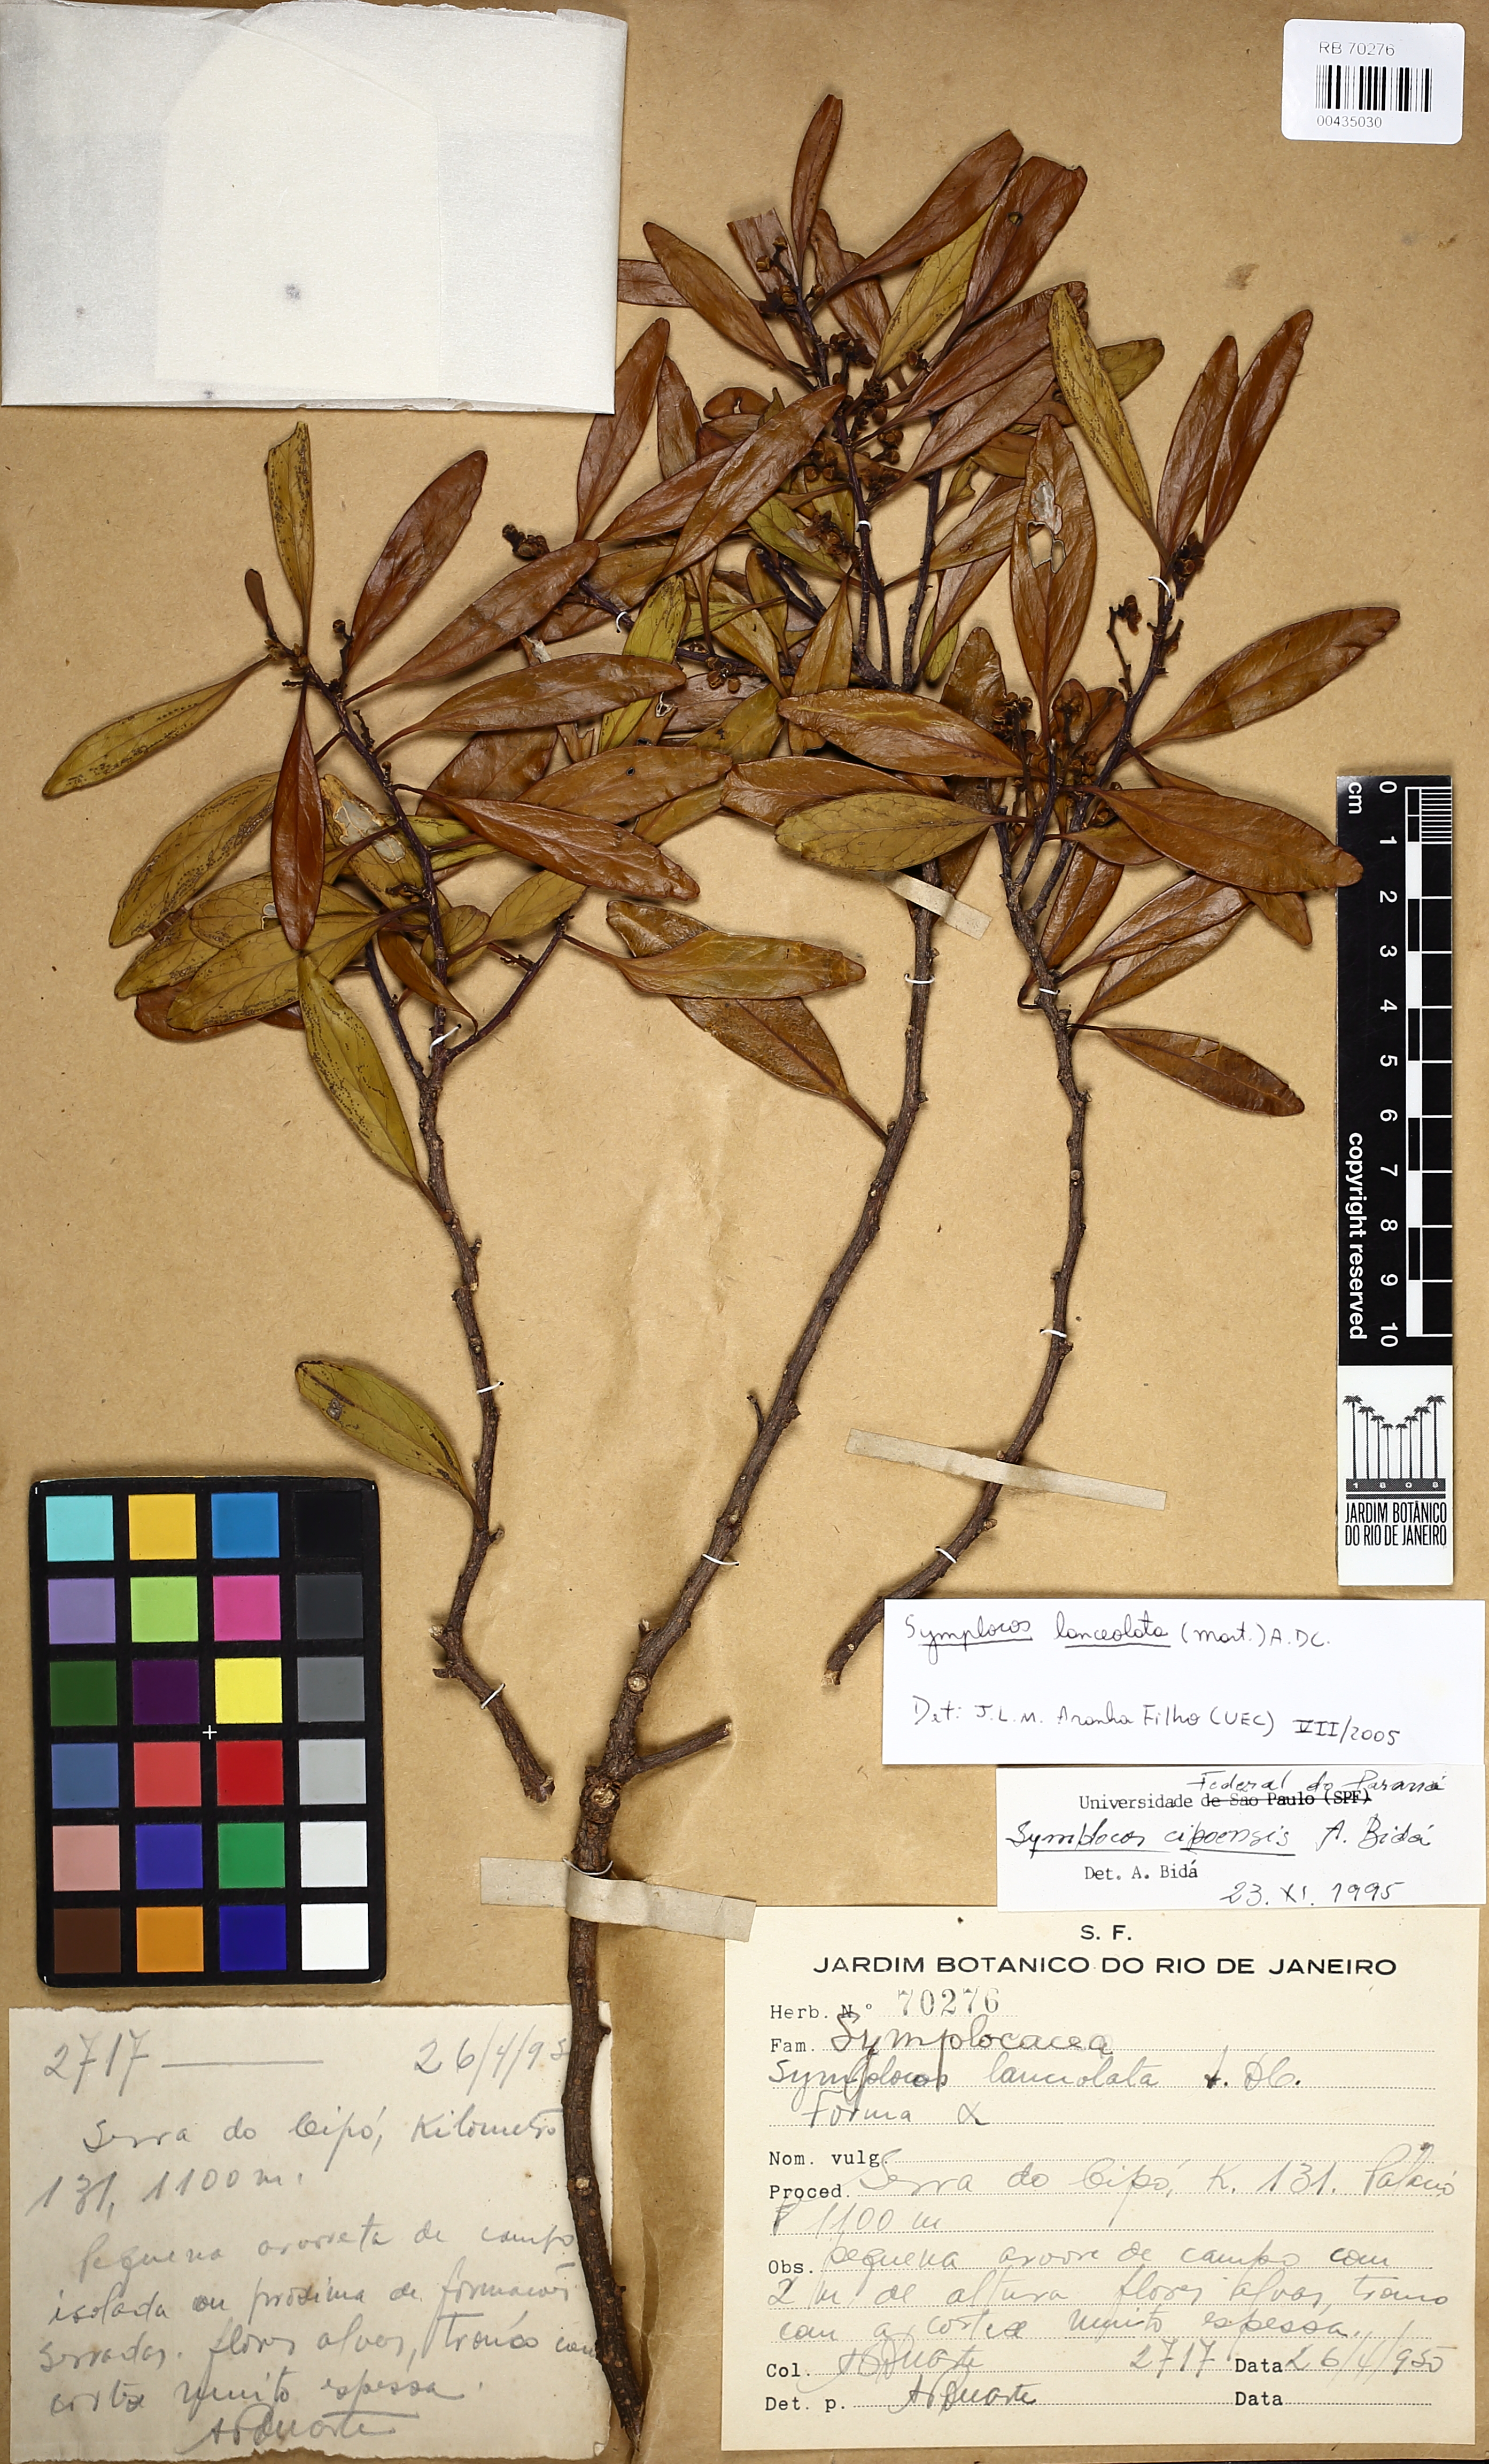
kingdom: Plantae
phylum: Tracheophyta
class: Magnoliopsida
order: Ericales
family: Symplocaceae
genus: Symplocos
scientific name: Symplocos oblongifolia
